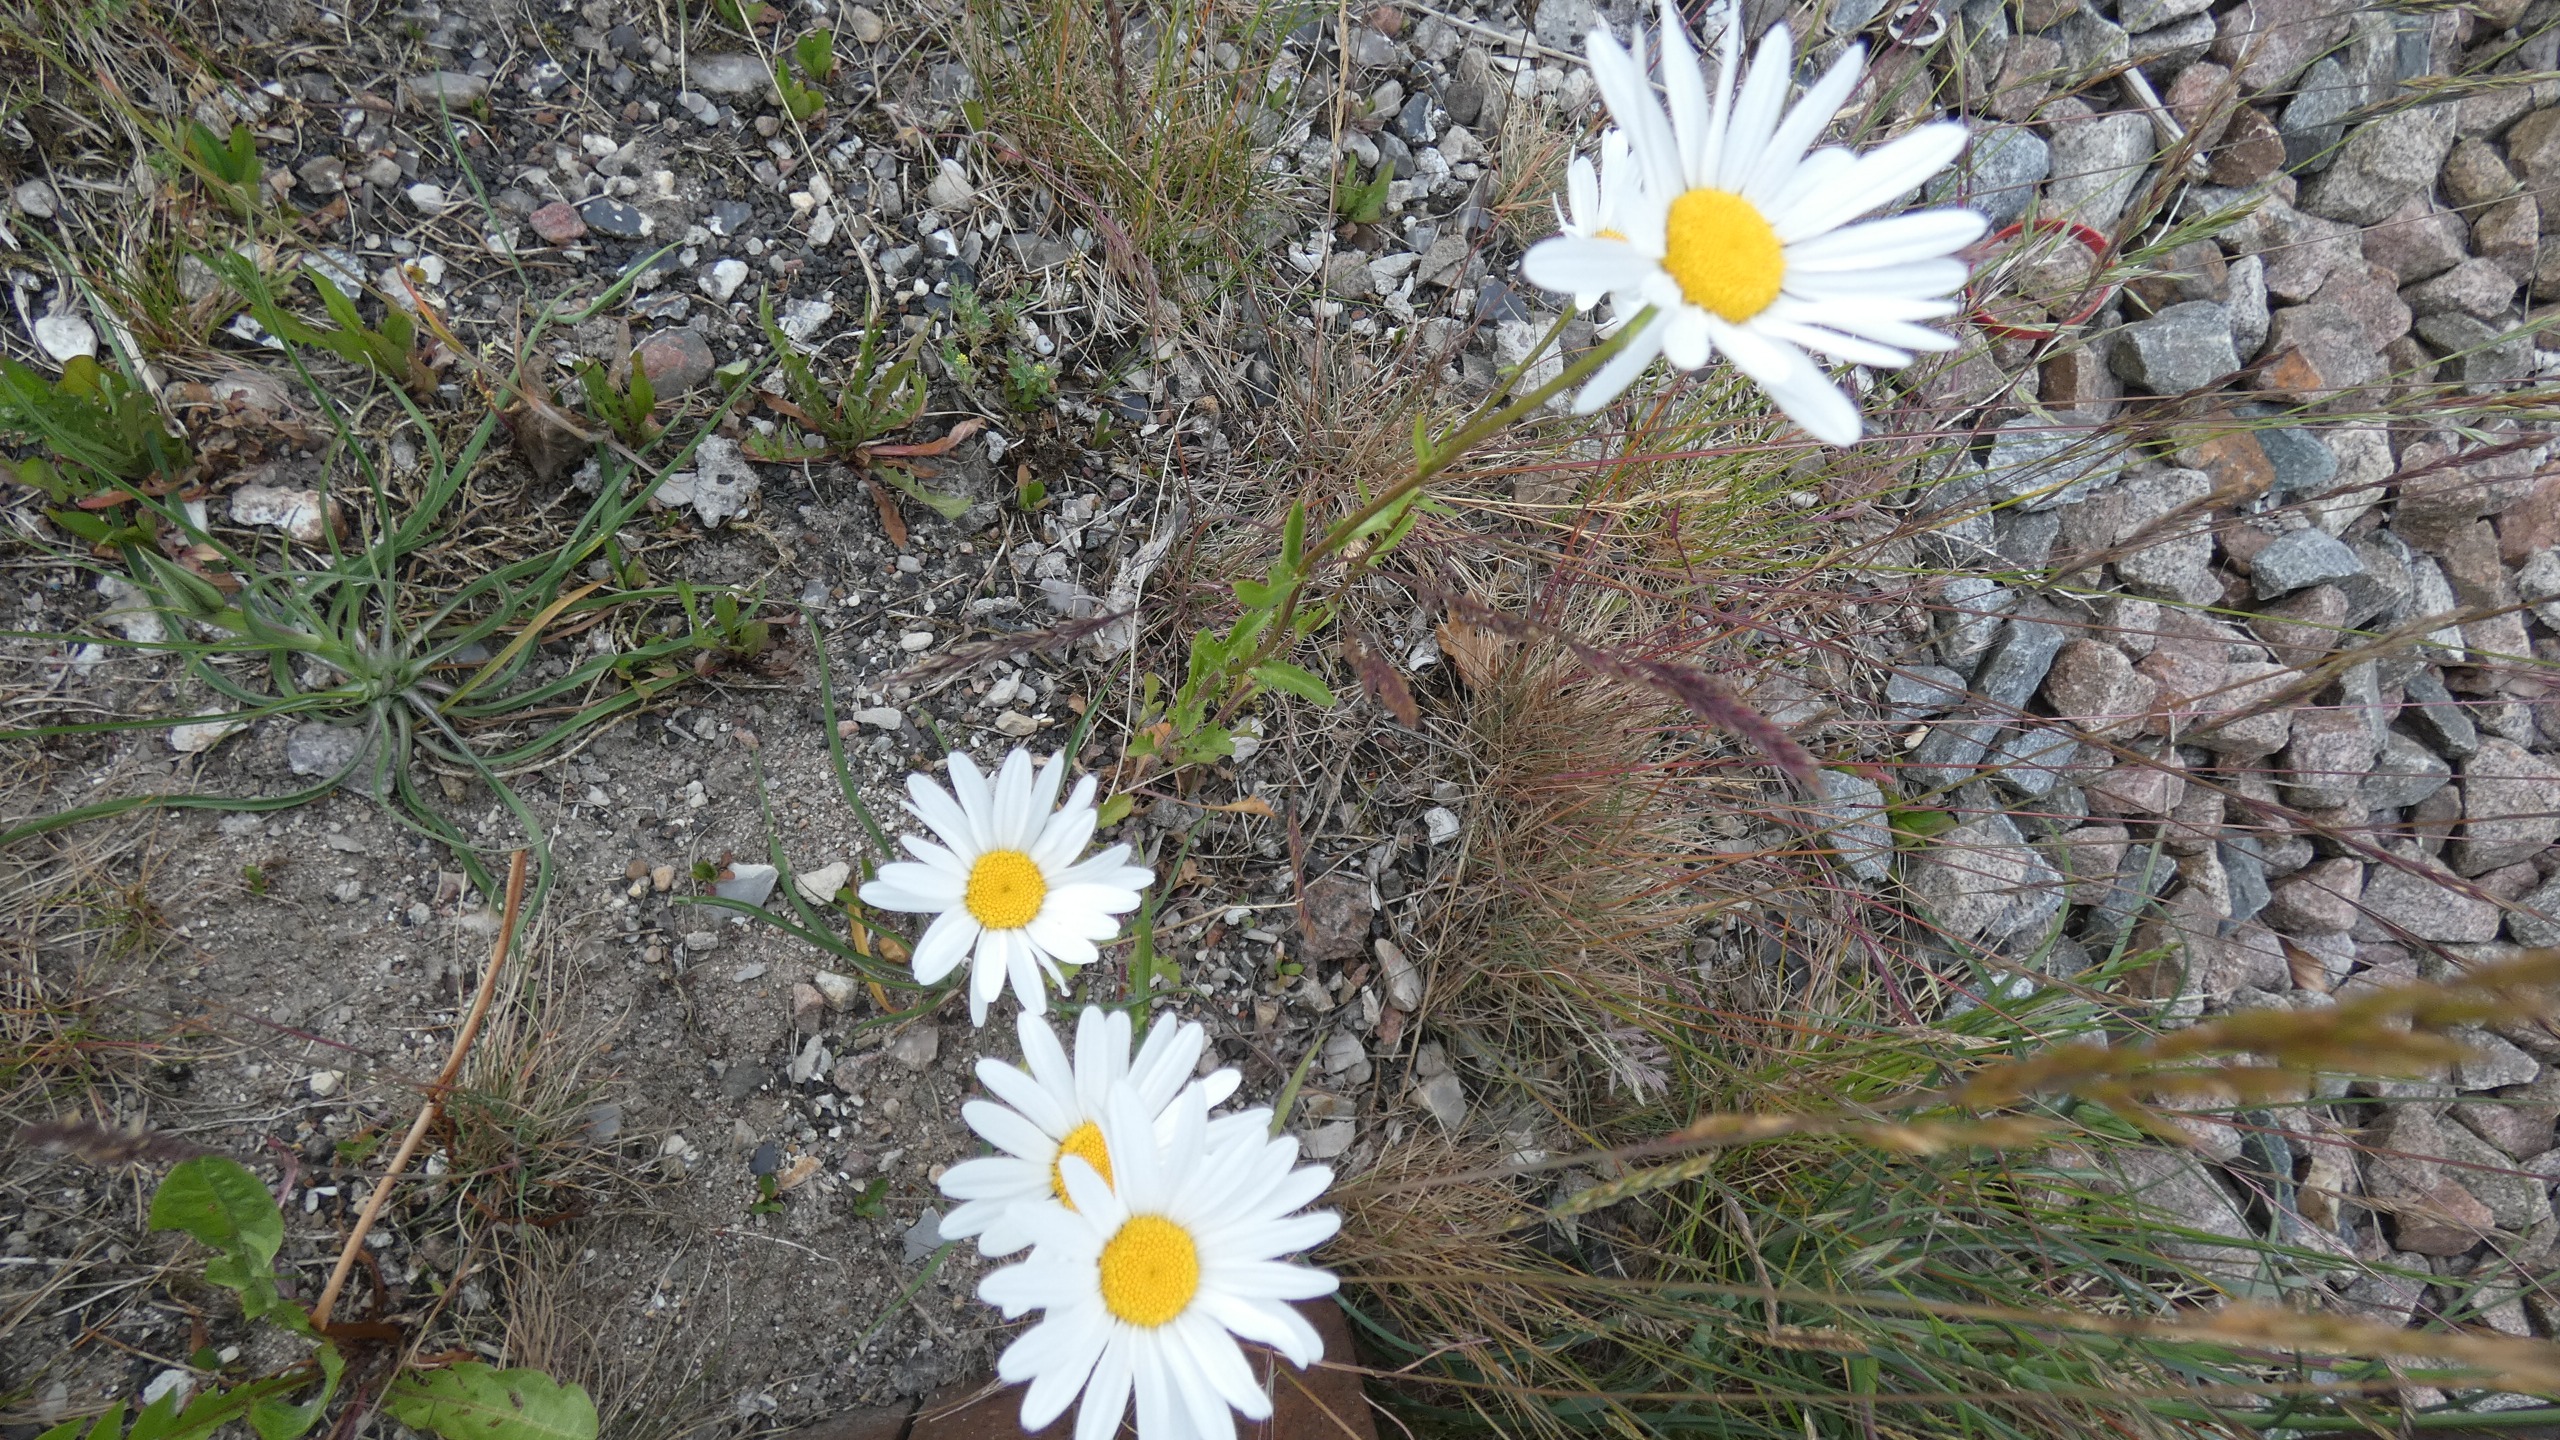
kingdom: Plantae
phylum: Tracheophyta
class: Magnoliopsida
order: Asterales
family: Asteraceae
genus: Leucanthemum
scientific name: Leucanthemum vulgare
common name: Hvid okseøje
